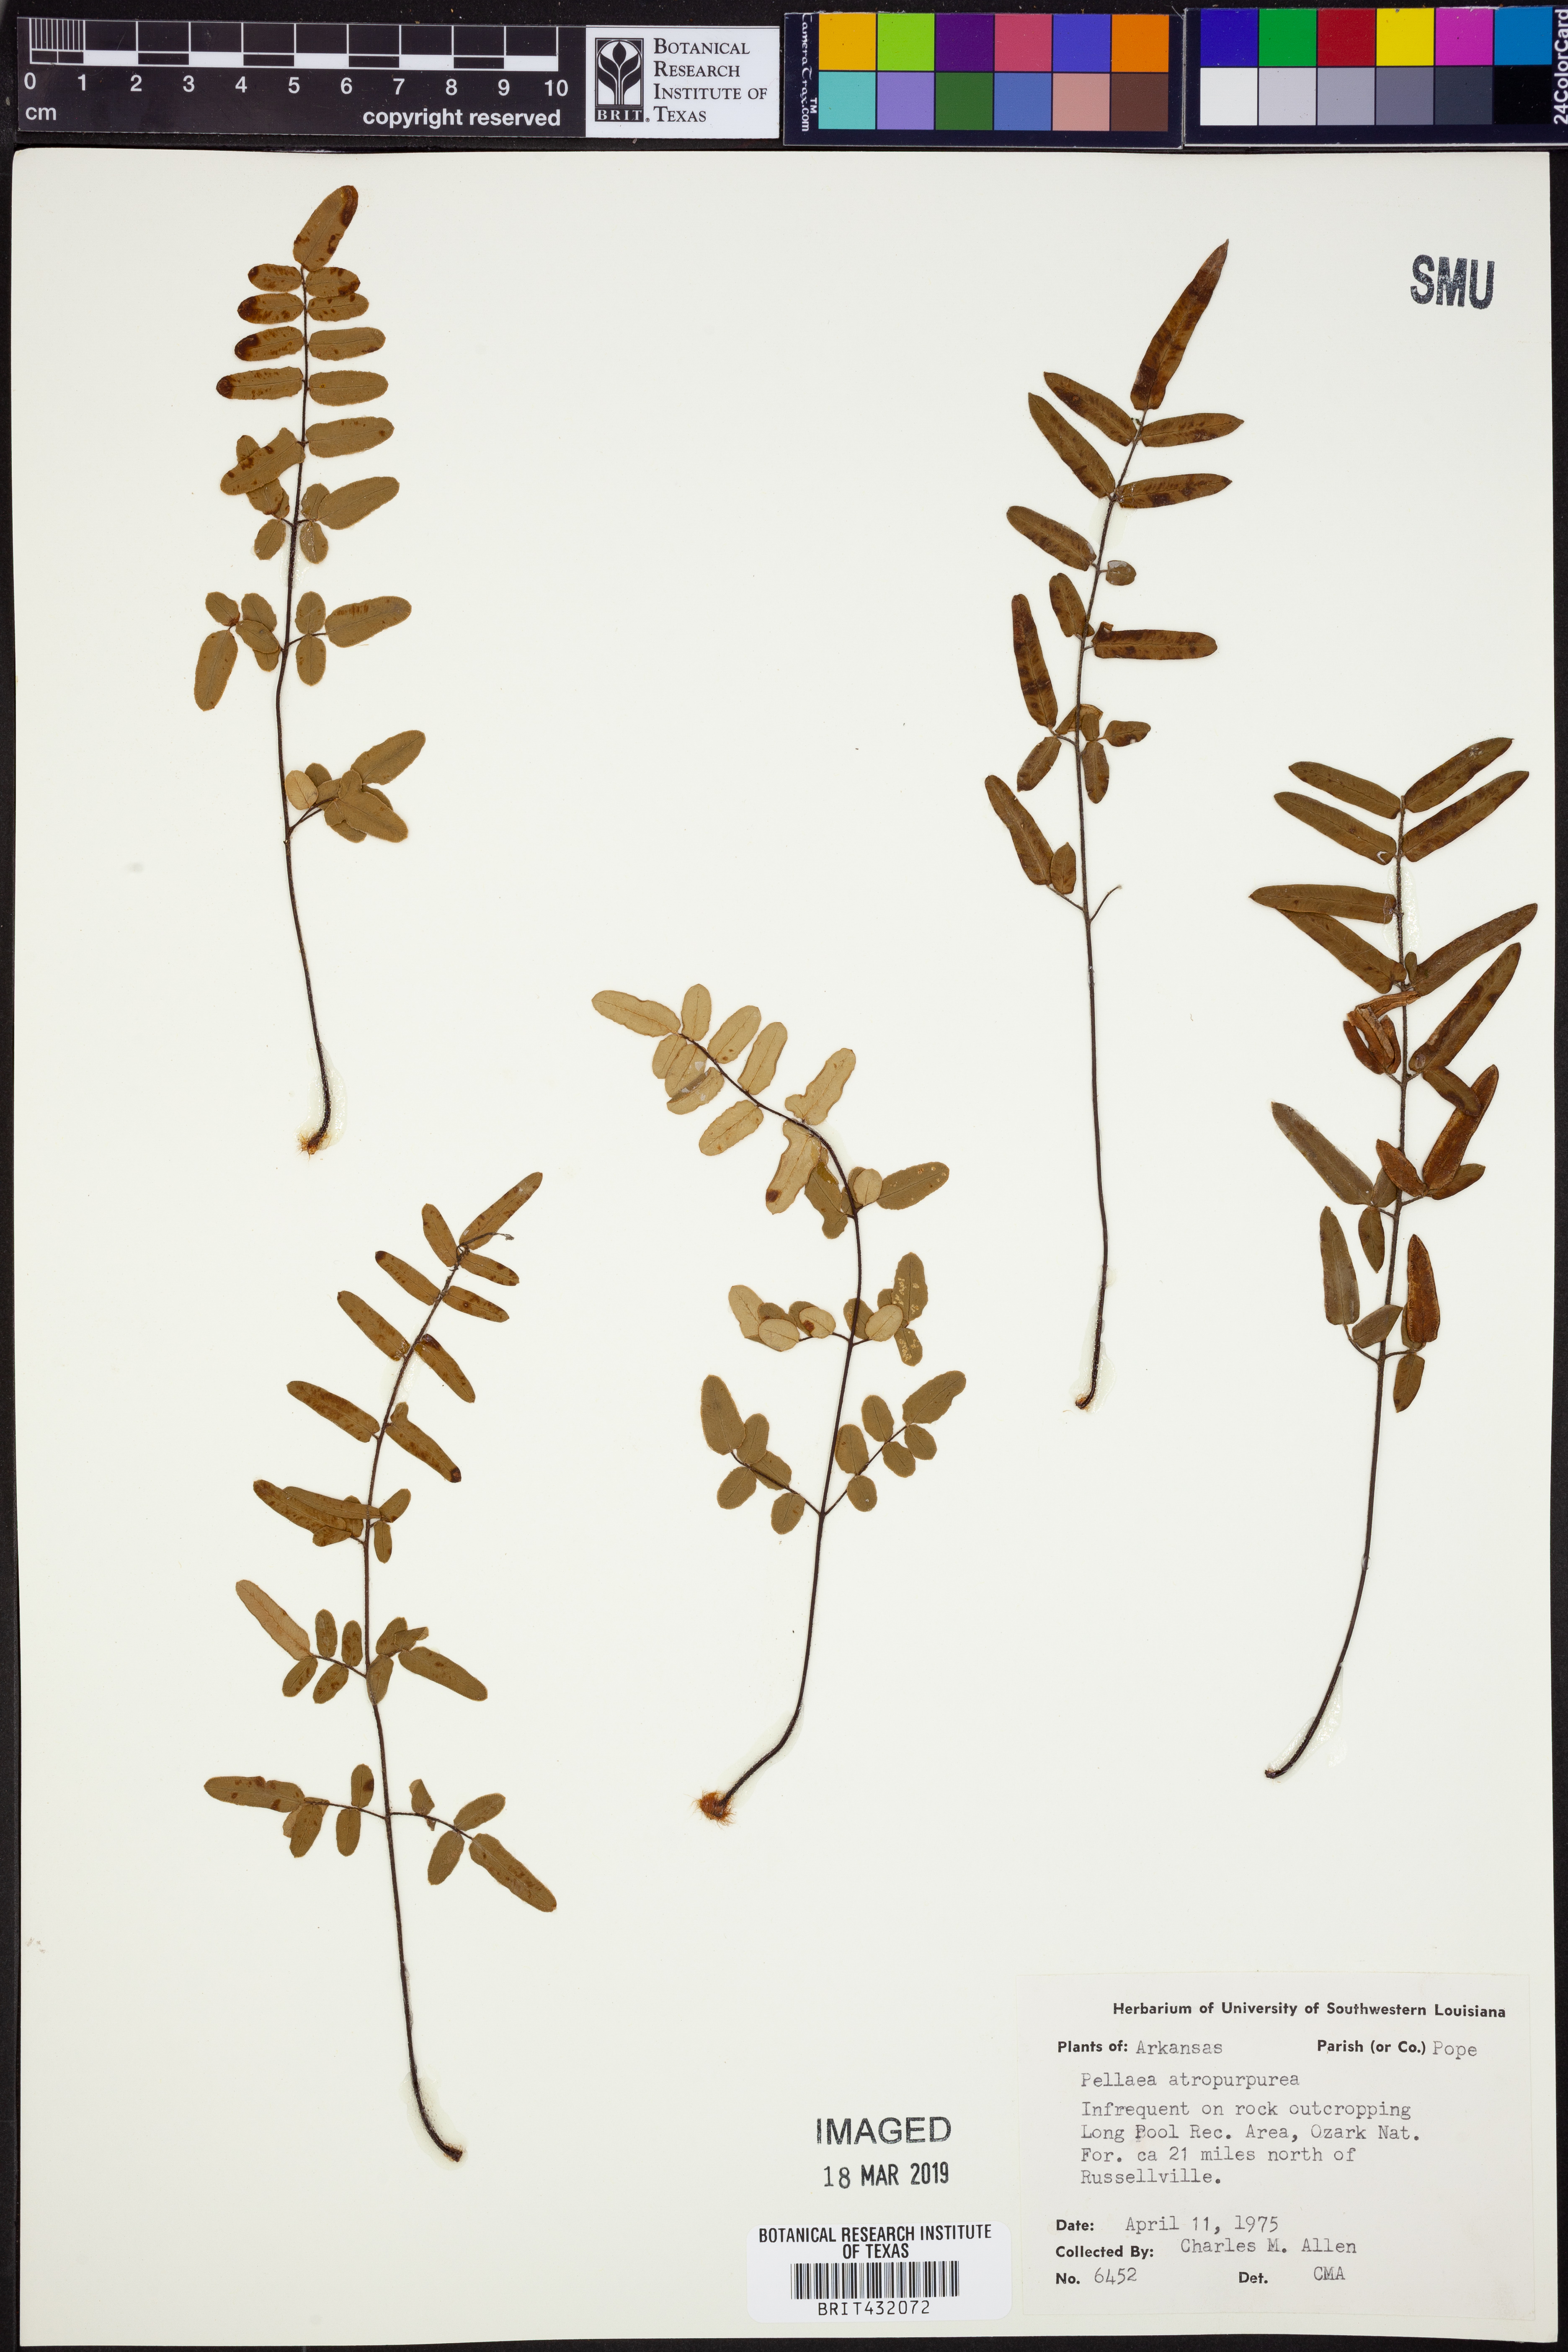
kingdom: Plantae
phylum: Tracheophyta
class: Polypodiopsida
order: Polypodiales
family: Pteridaceae
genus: Pellaea
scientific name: Pellaea atropurpurea
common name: Hairy cliffbrake
